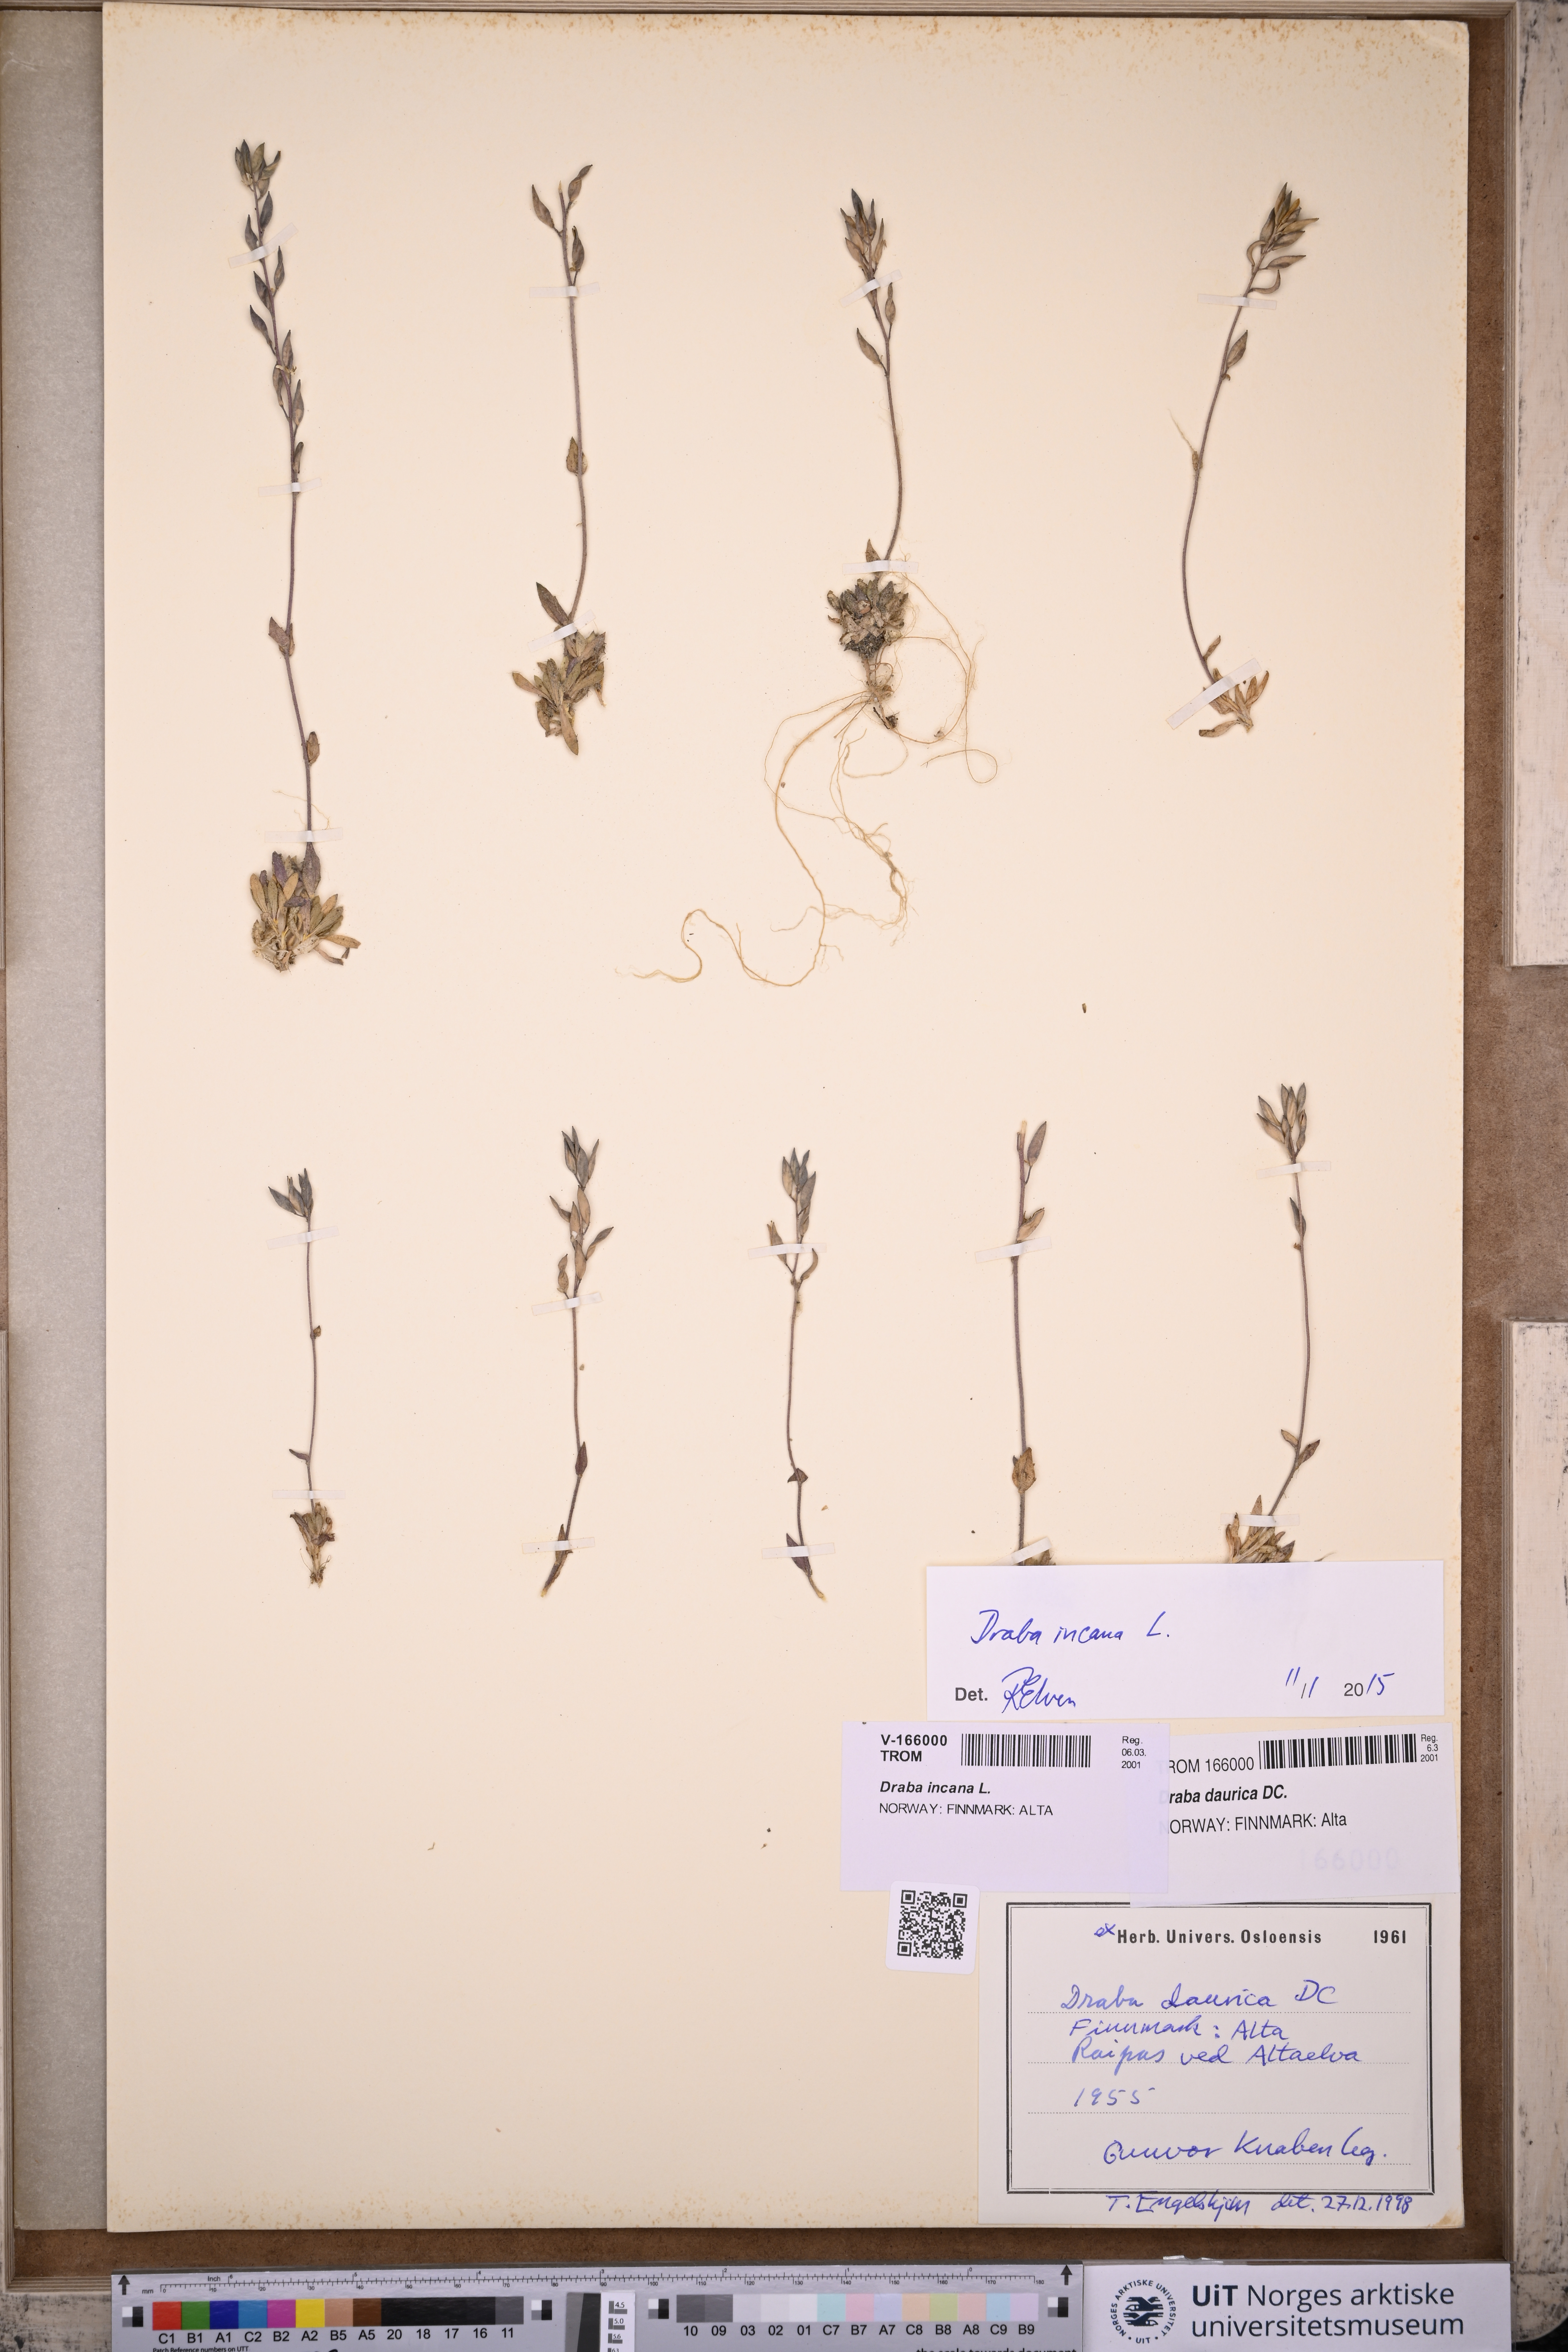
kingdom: Plantae
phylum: Tracheophyta
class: Magnoliopsida
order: Brassicales
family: Brassicaceae
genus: Draba
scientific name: Draba incana
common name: Hoary whitlow-grass
